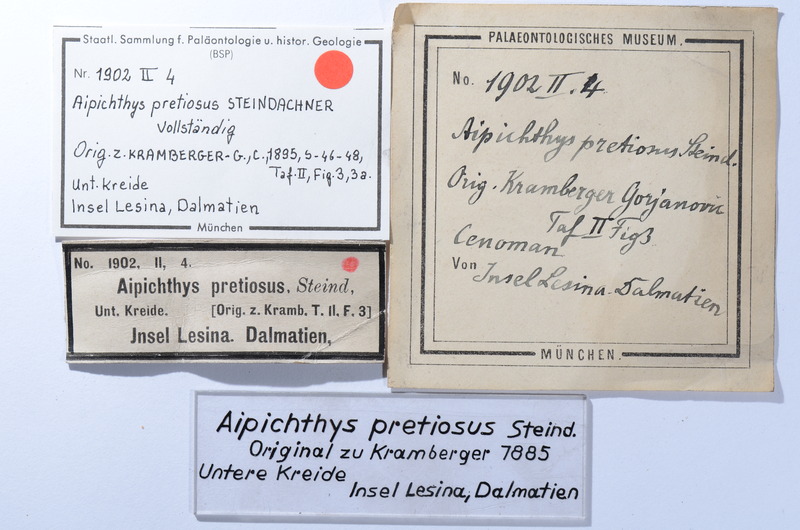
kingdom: Animalia
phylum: Chordata
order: Beryciformes
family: Aipichthyidae
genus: Aipichthys
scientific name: Aipichthys pretiosus
